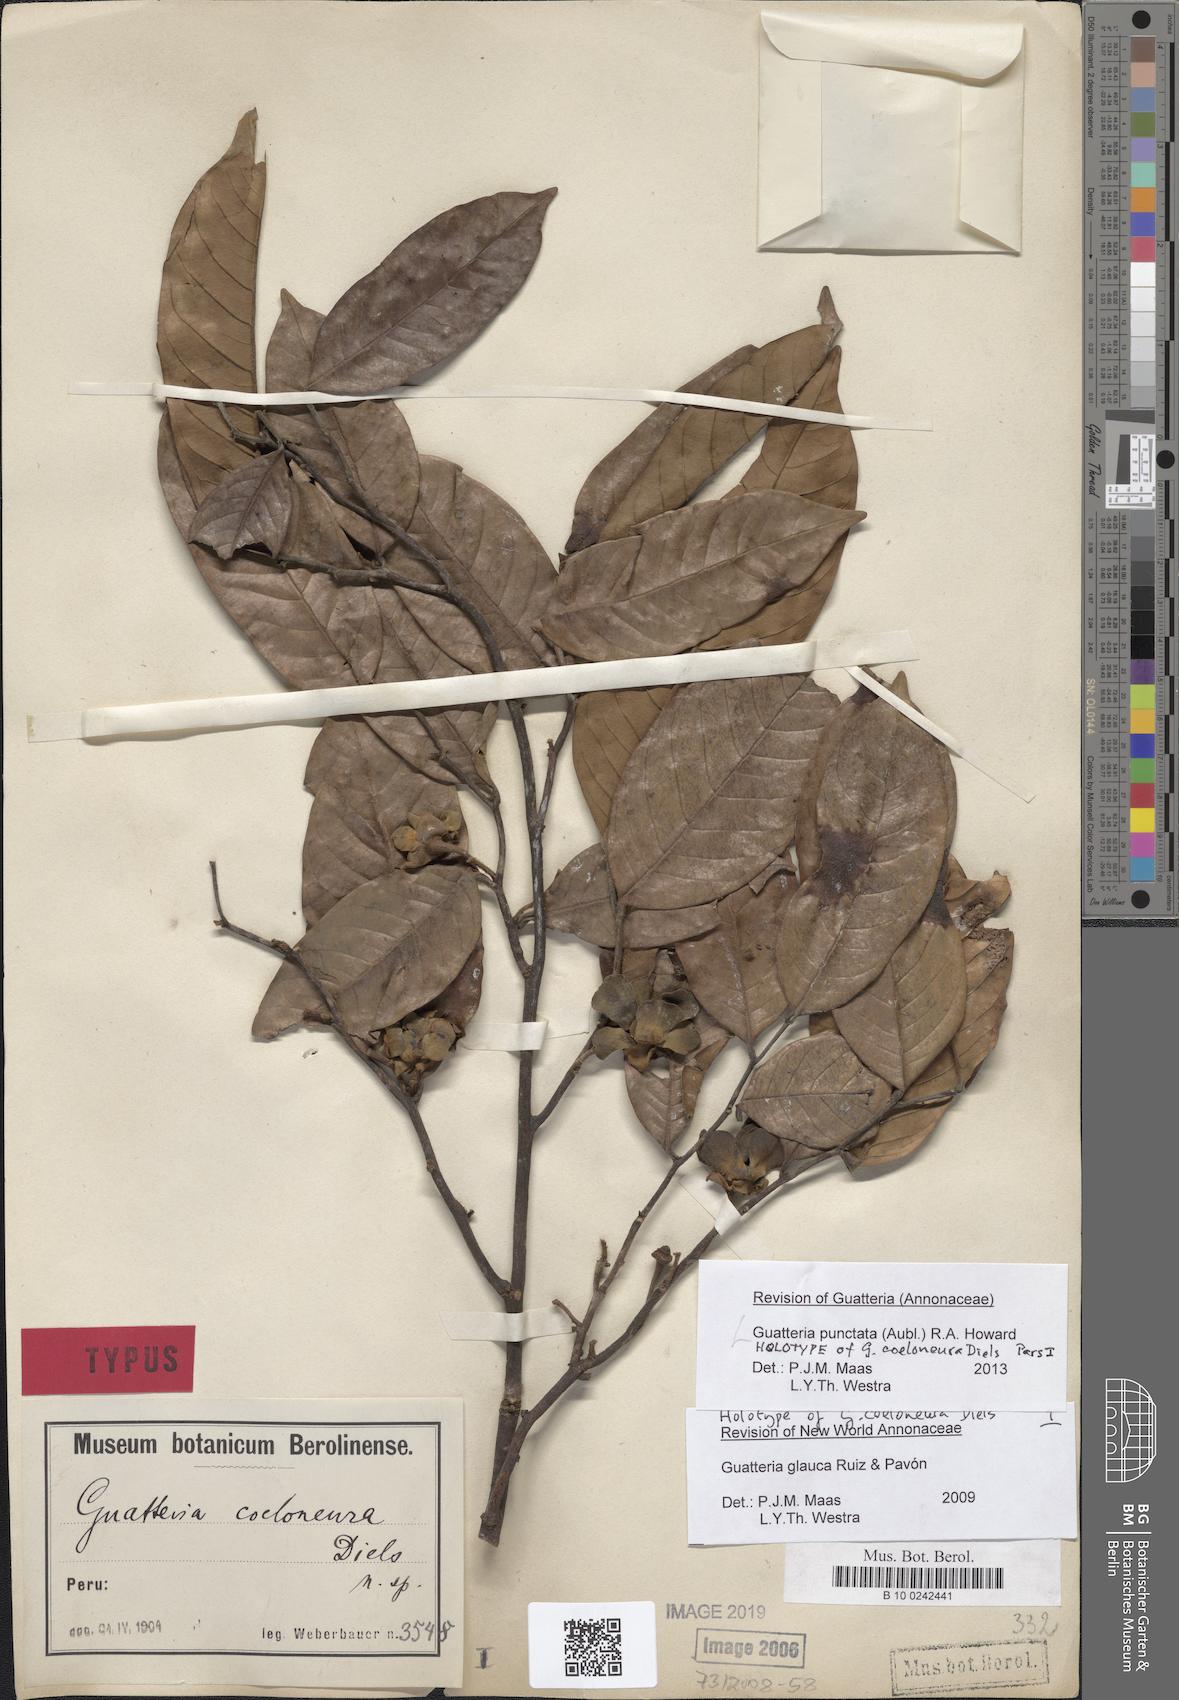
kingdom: Plantae
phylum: Tracheophyta
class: Magnoliopsida
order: Magnoliales
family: Annonaceae
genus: Guatteria
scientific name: Guatteria punctata
